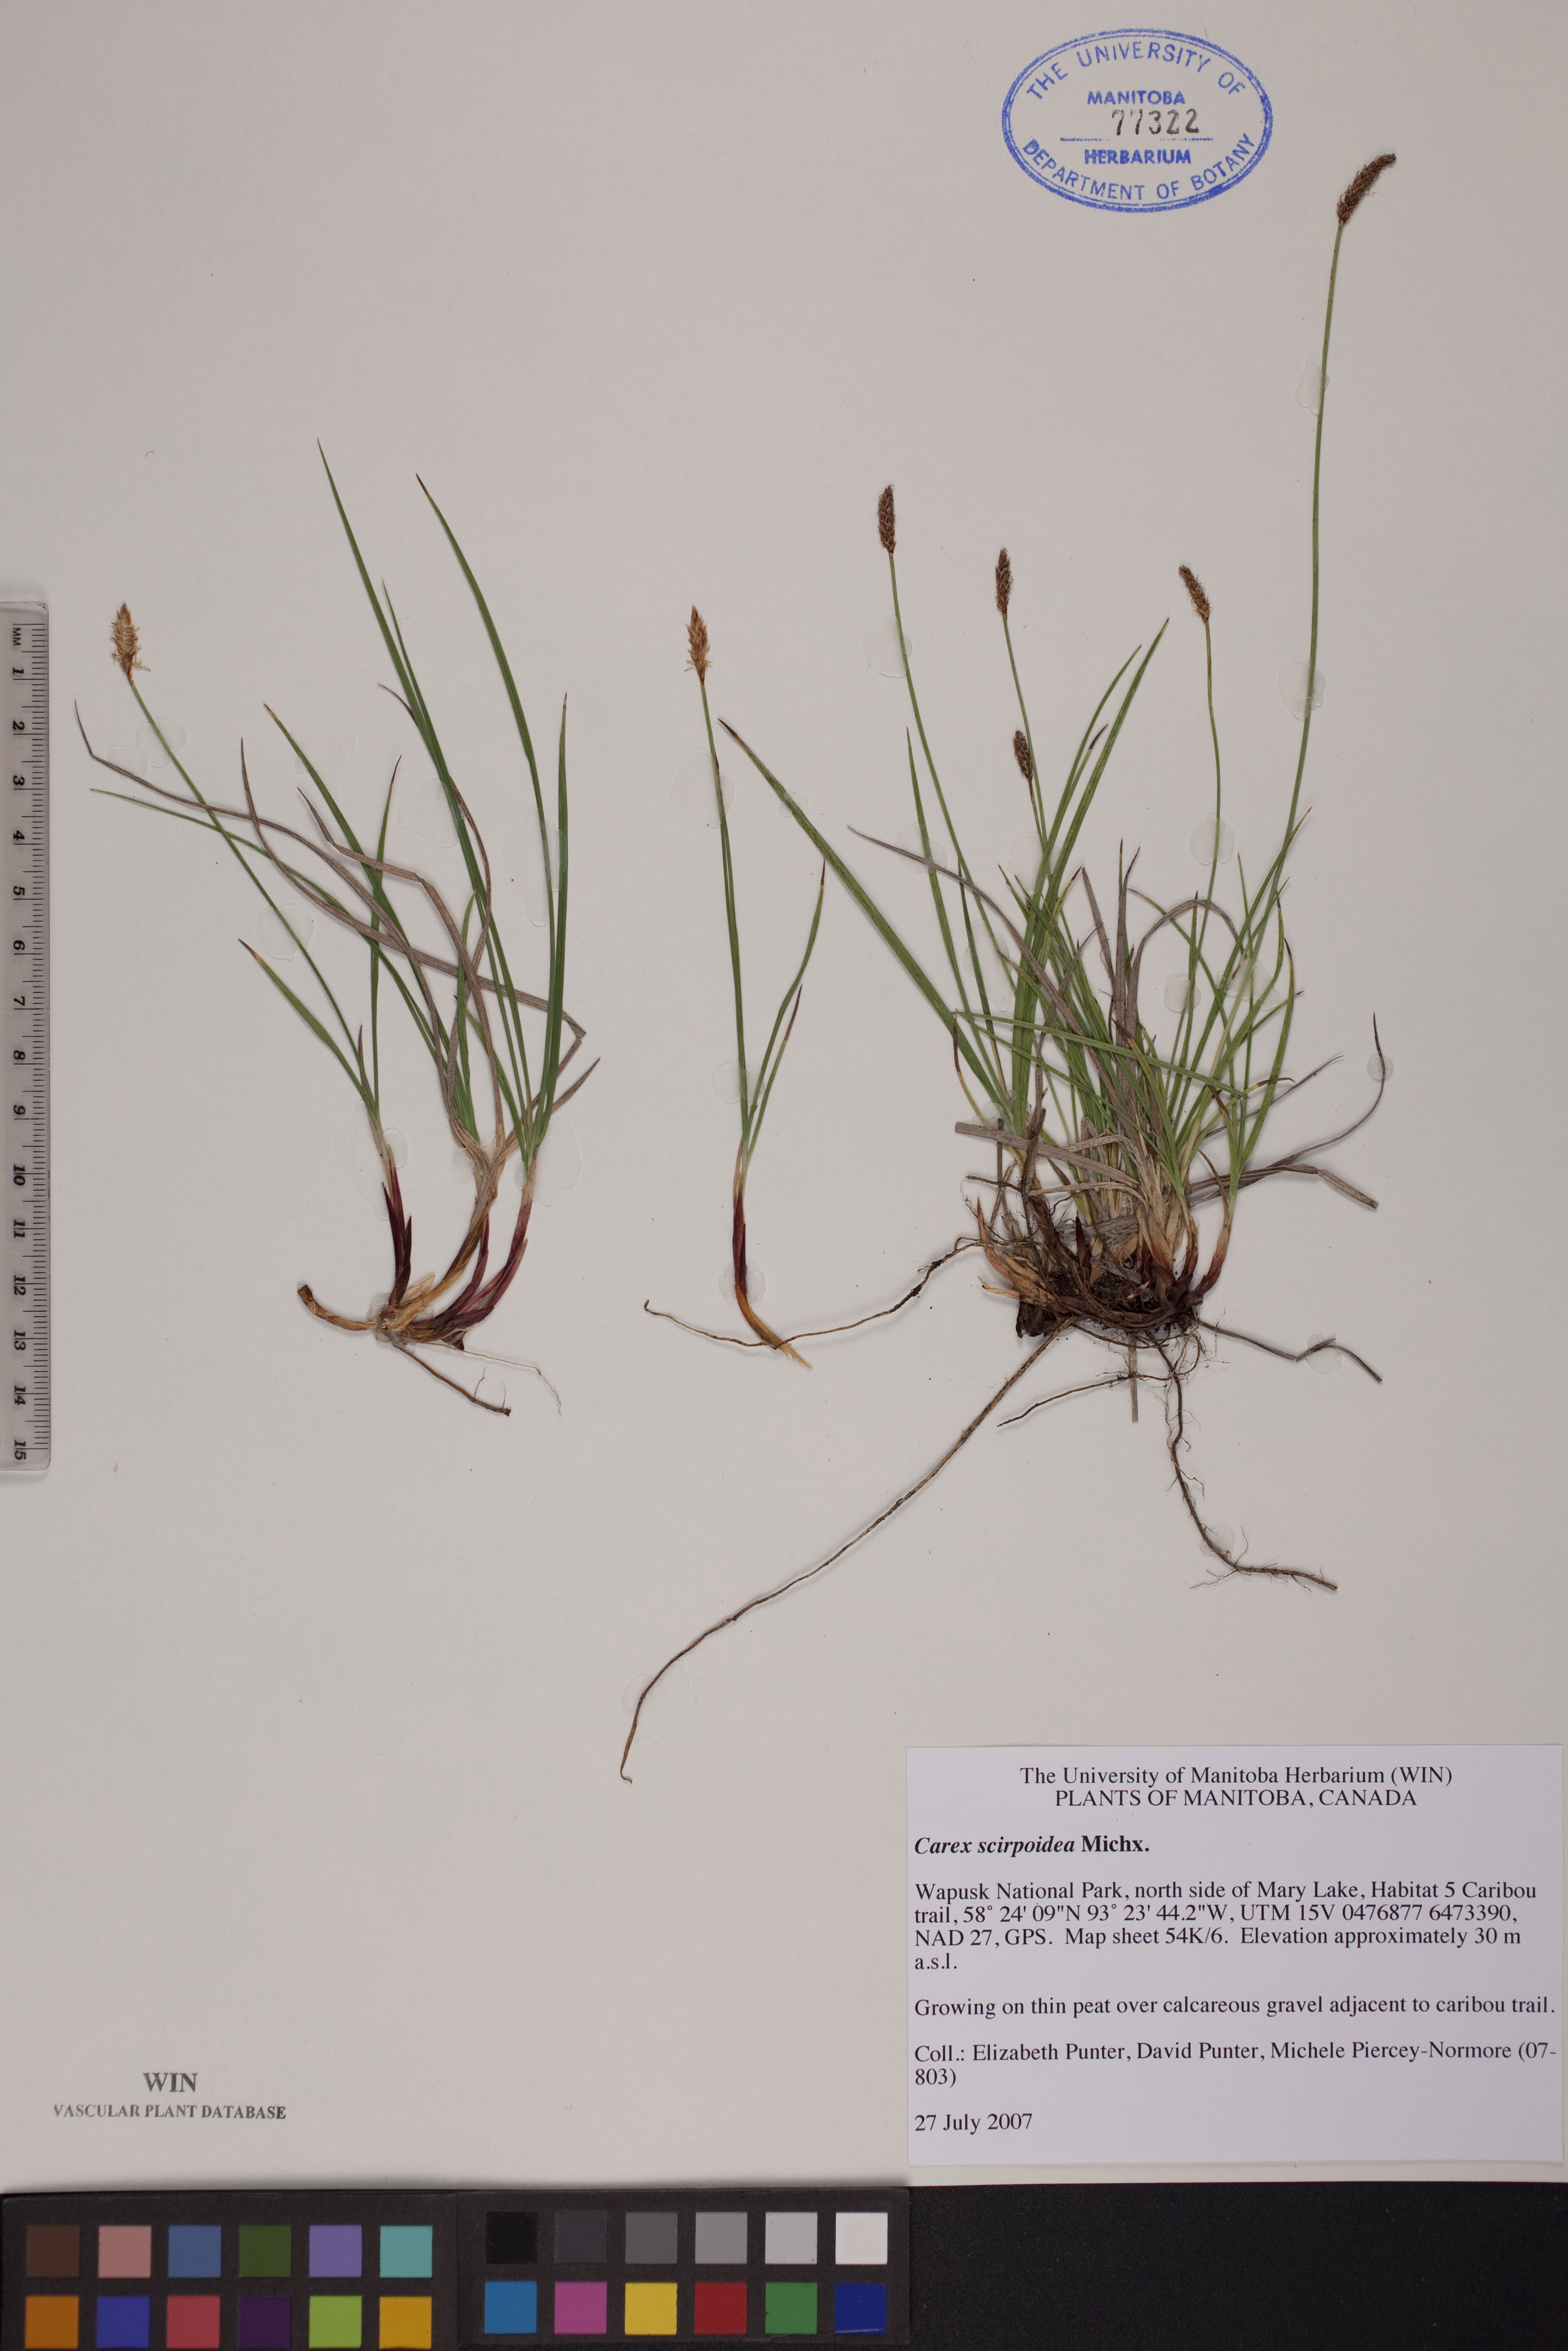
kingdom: Plantae
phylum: Tracheophyta
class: Liliopsida
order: Poales
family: Cyperaceae
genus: Carex
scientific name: Carex scirpoidea
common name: Canada single-spike sedge
